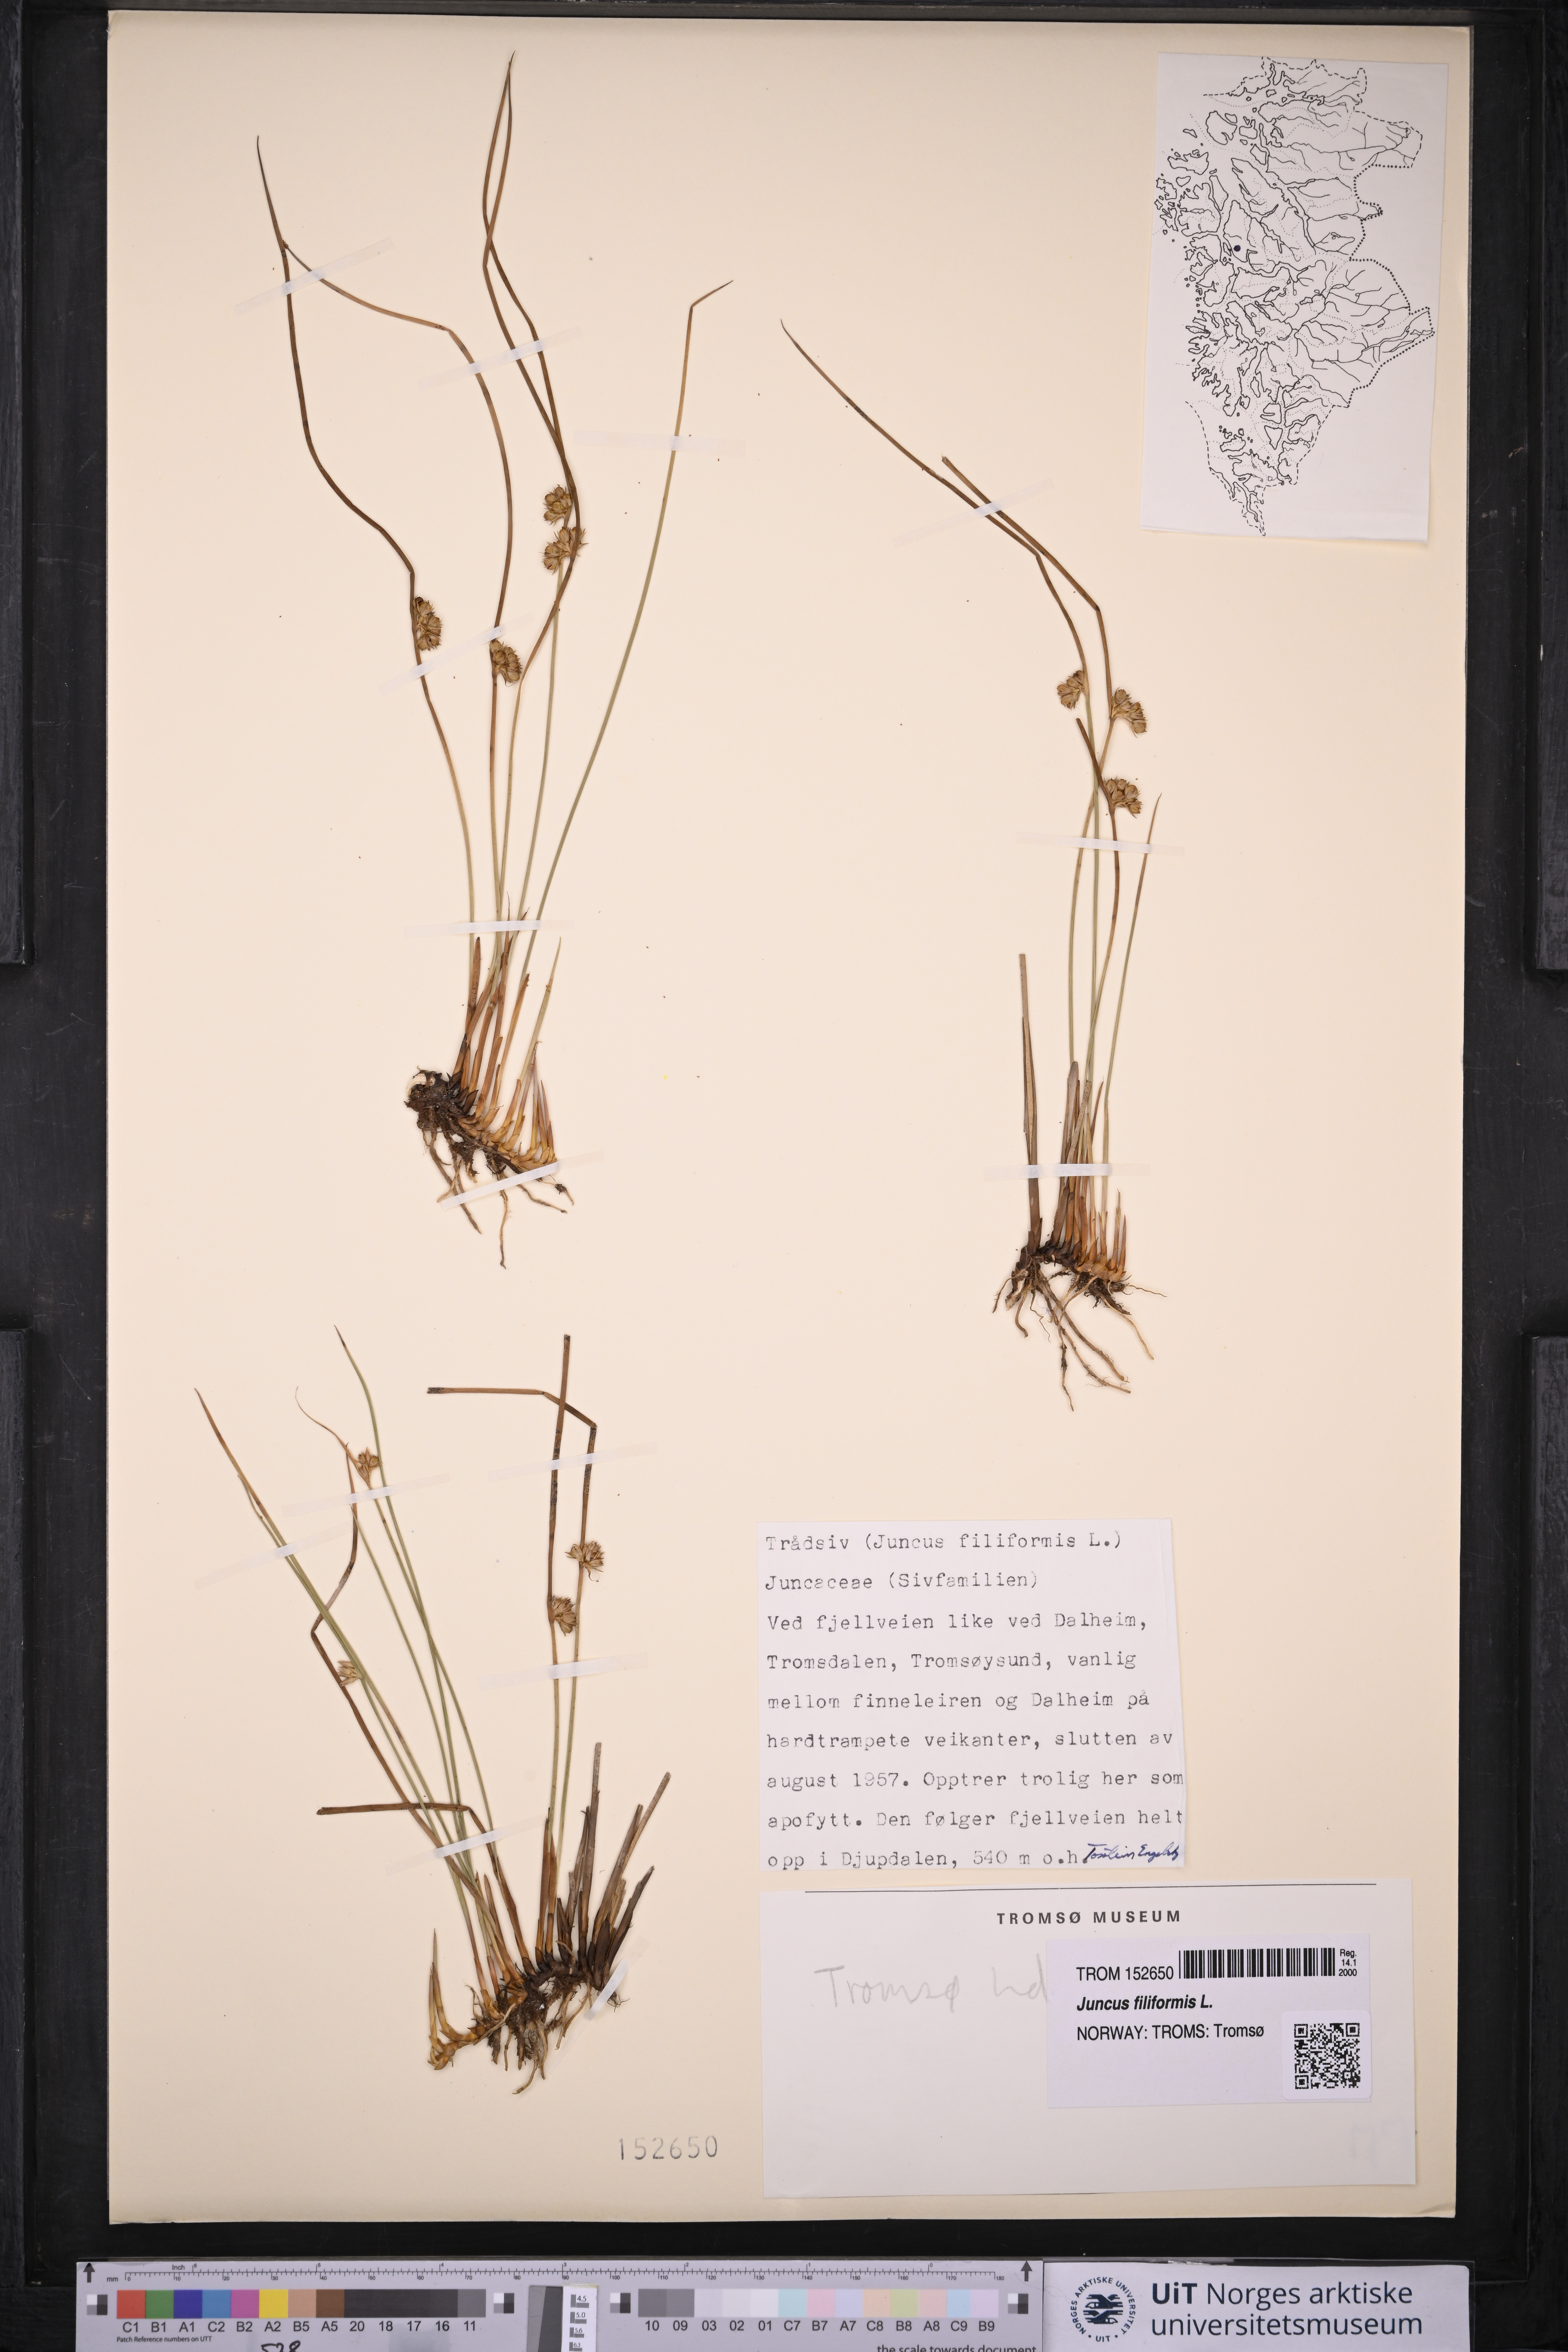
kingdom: Plantae
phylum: Tracheophyta
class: Liliopsida
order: Poales
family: Juncaceae
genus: Juncus
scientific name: Juncus filiformis
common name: Thread rush
